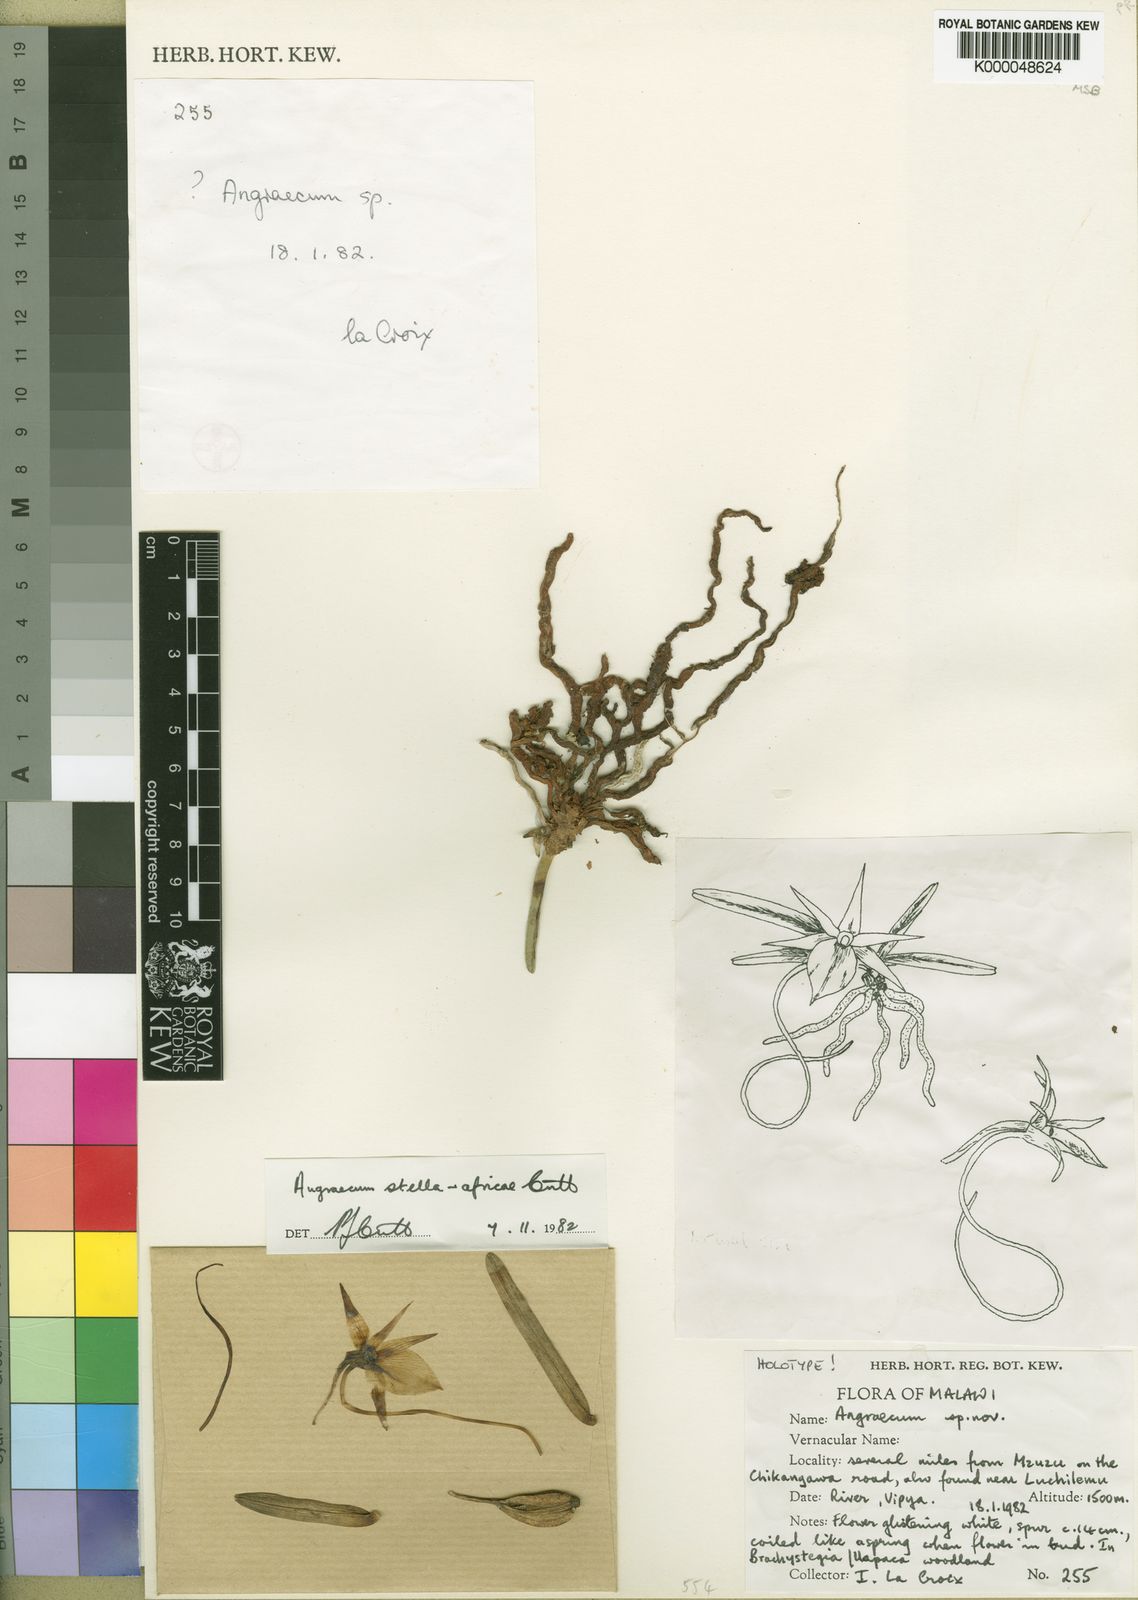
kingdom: Plantae
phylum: Tracheophyta
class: Liliopsida
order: Asparagales
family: Orchidaceae
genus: Angraecum
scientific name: Angraecum stella-africae
